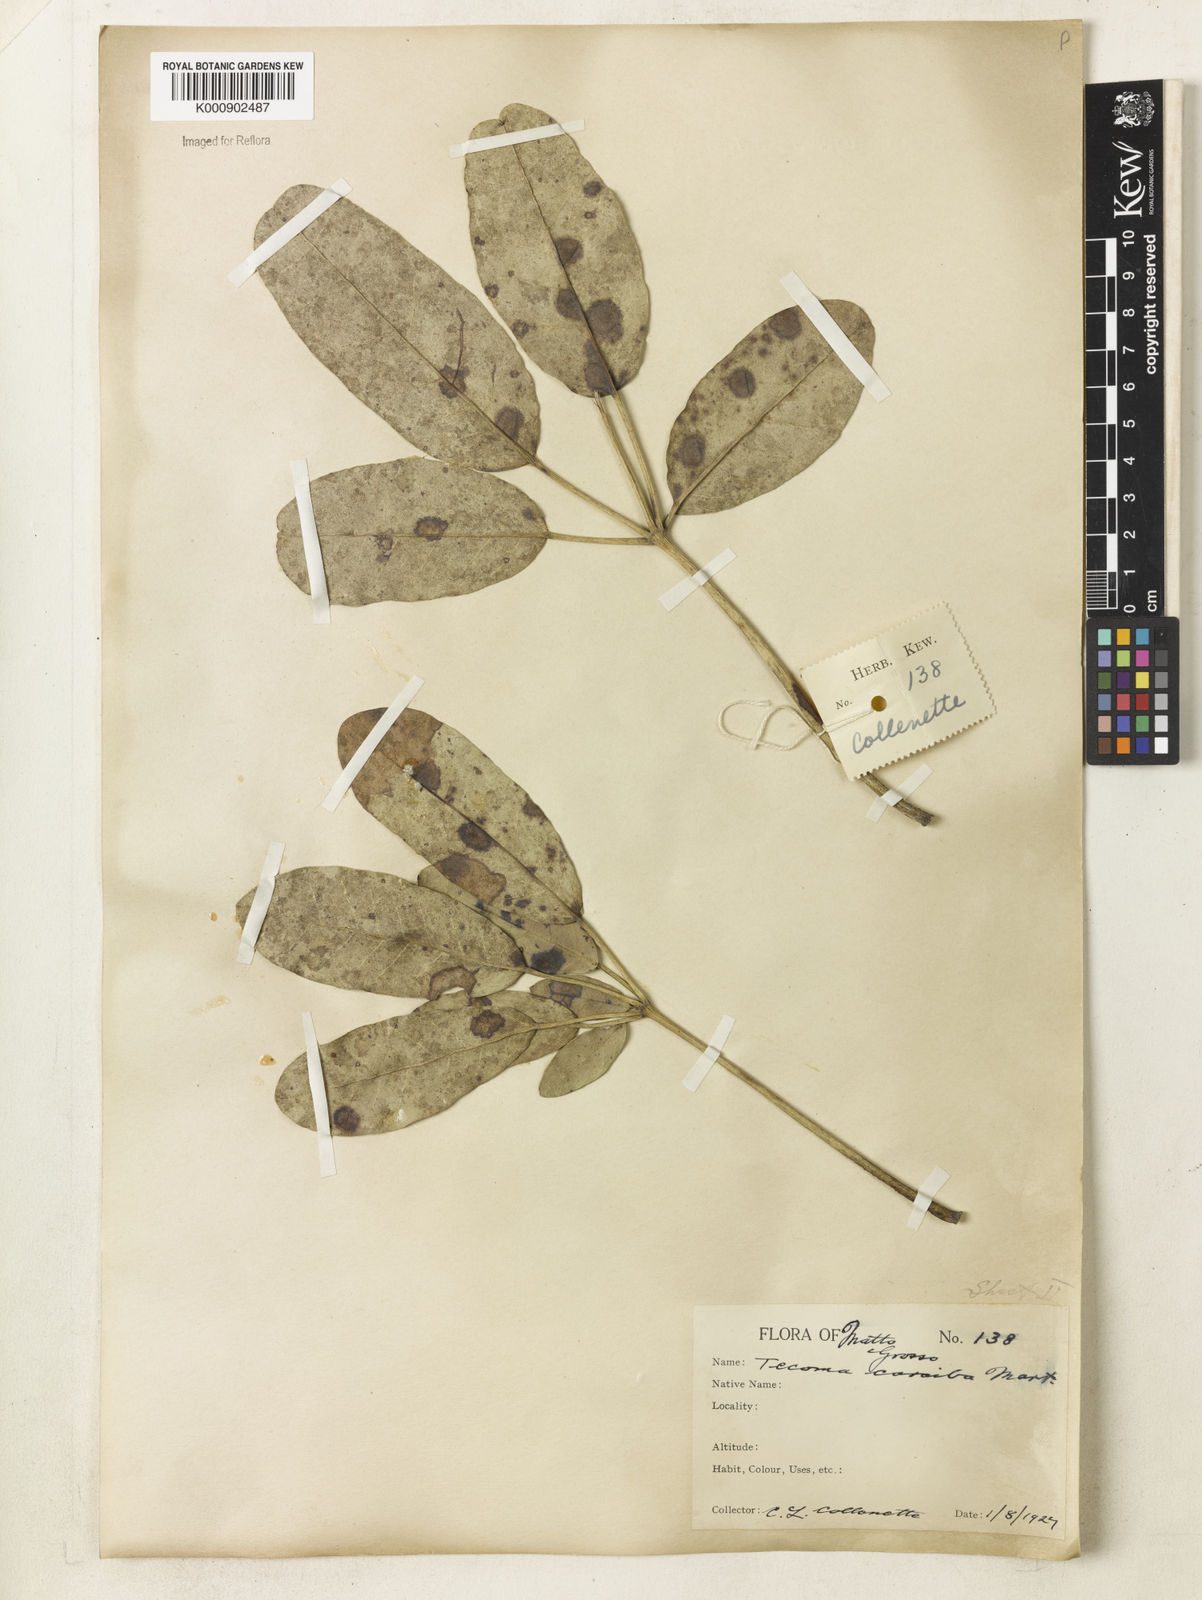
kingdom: Plantae
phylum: Tracheophyta
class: Magnoliopsida
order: Lamiales
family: Bignoniaceae
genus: Tabebuia
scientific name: Tabebuia aurea
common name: Caribbean trumpet-tree
